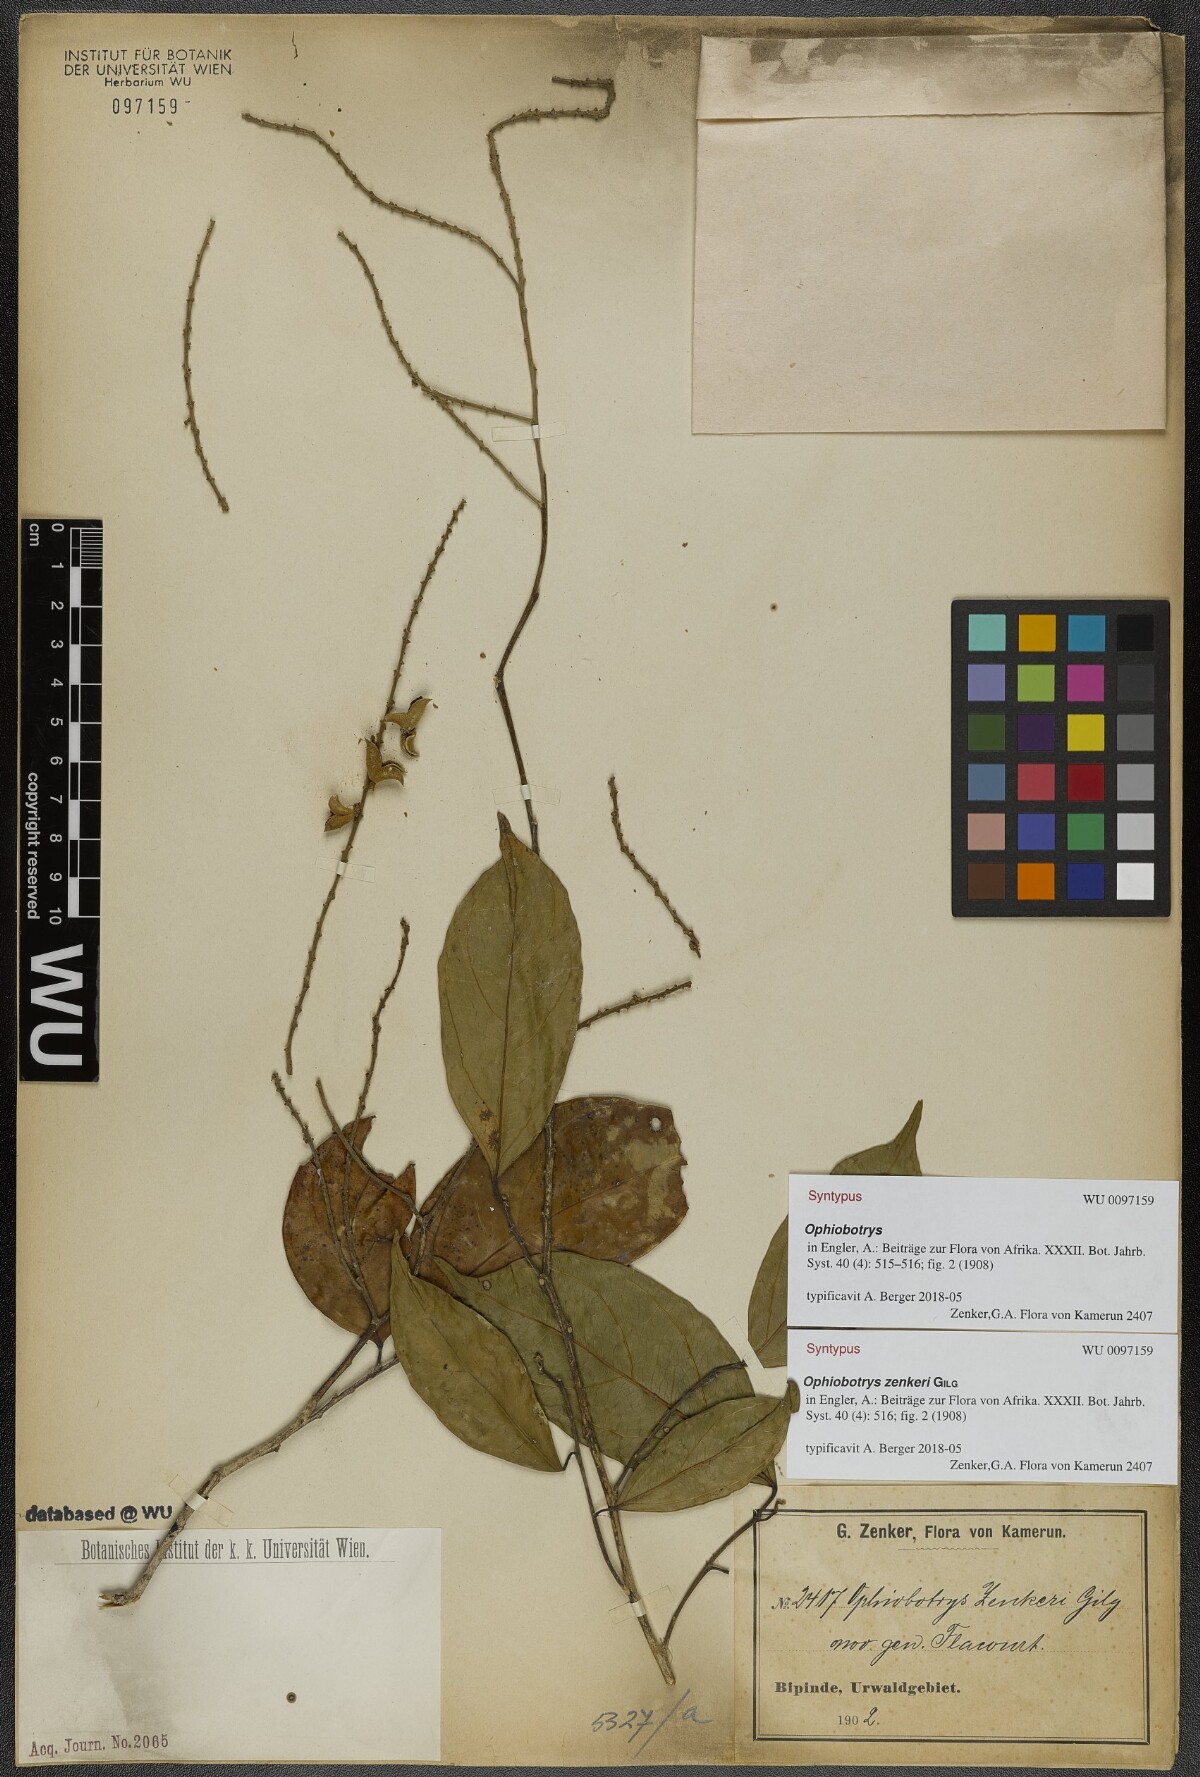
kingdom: Plantae
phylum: Tracheophyta
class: Magnoliopsida
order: Malpighiales
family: Salicaceae
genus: Ophiobotrys
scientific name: Ophiobotrys zenkeri
